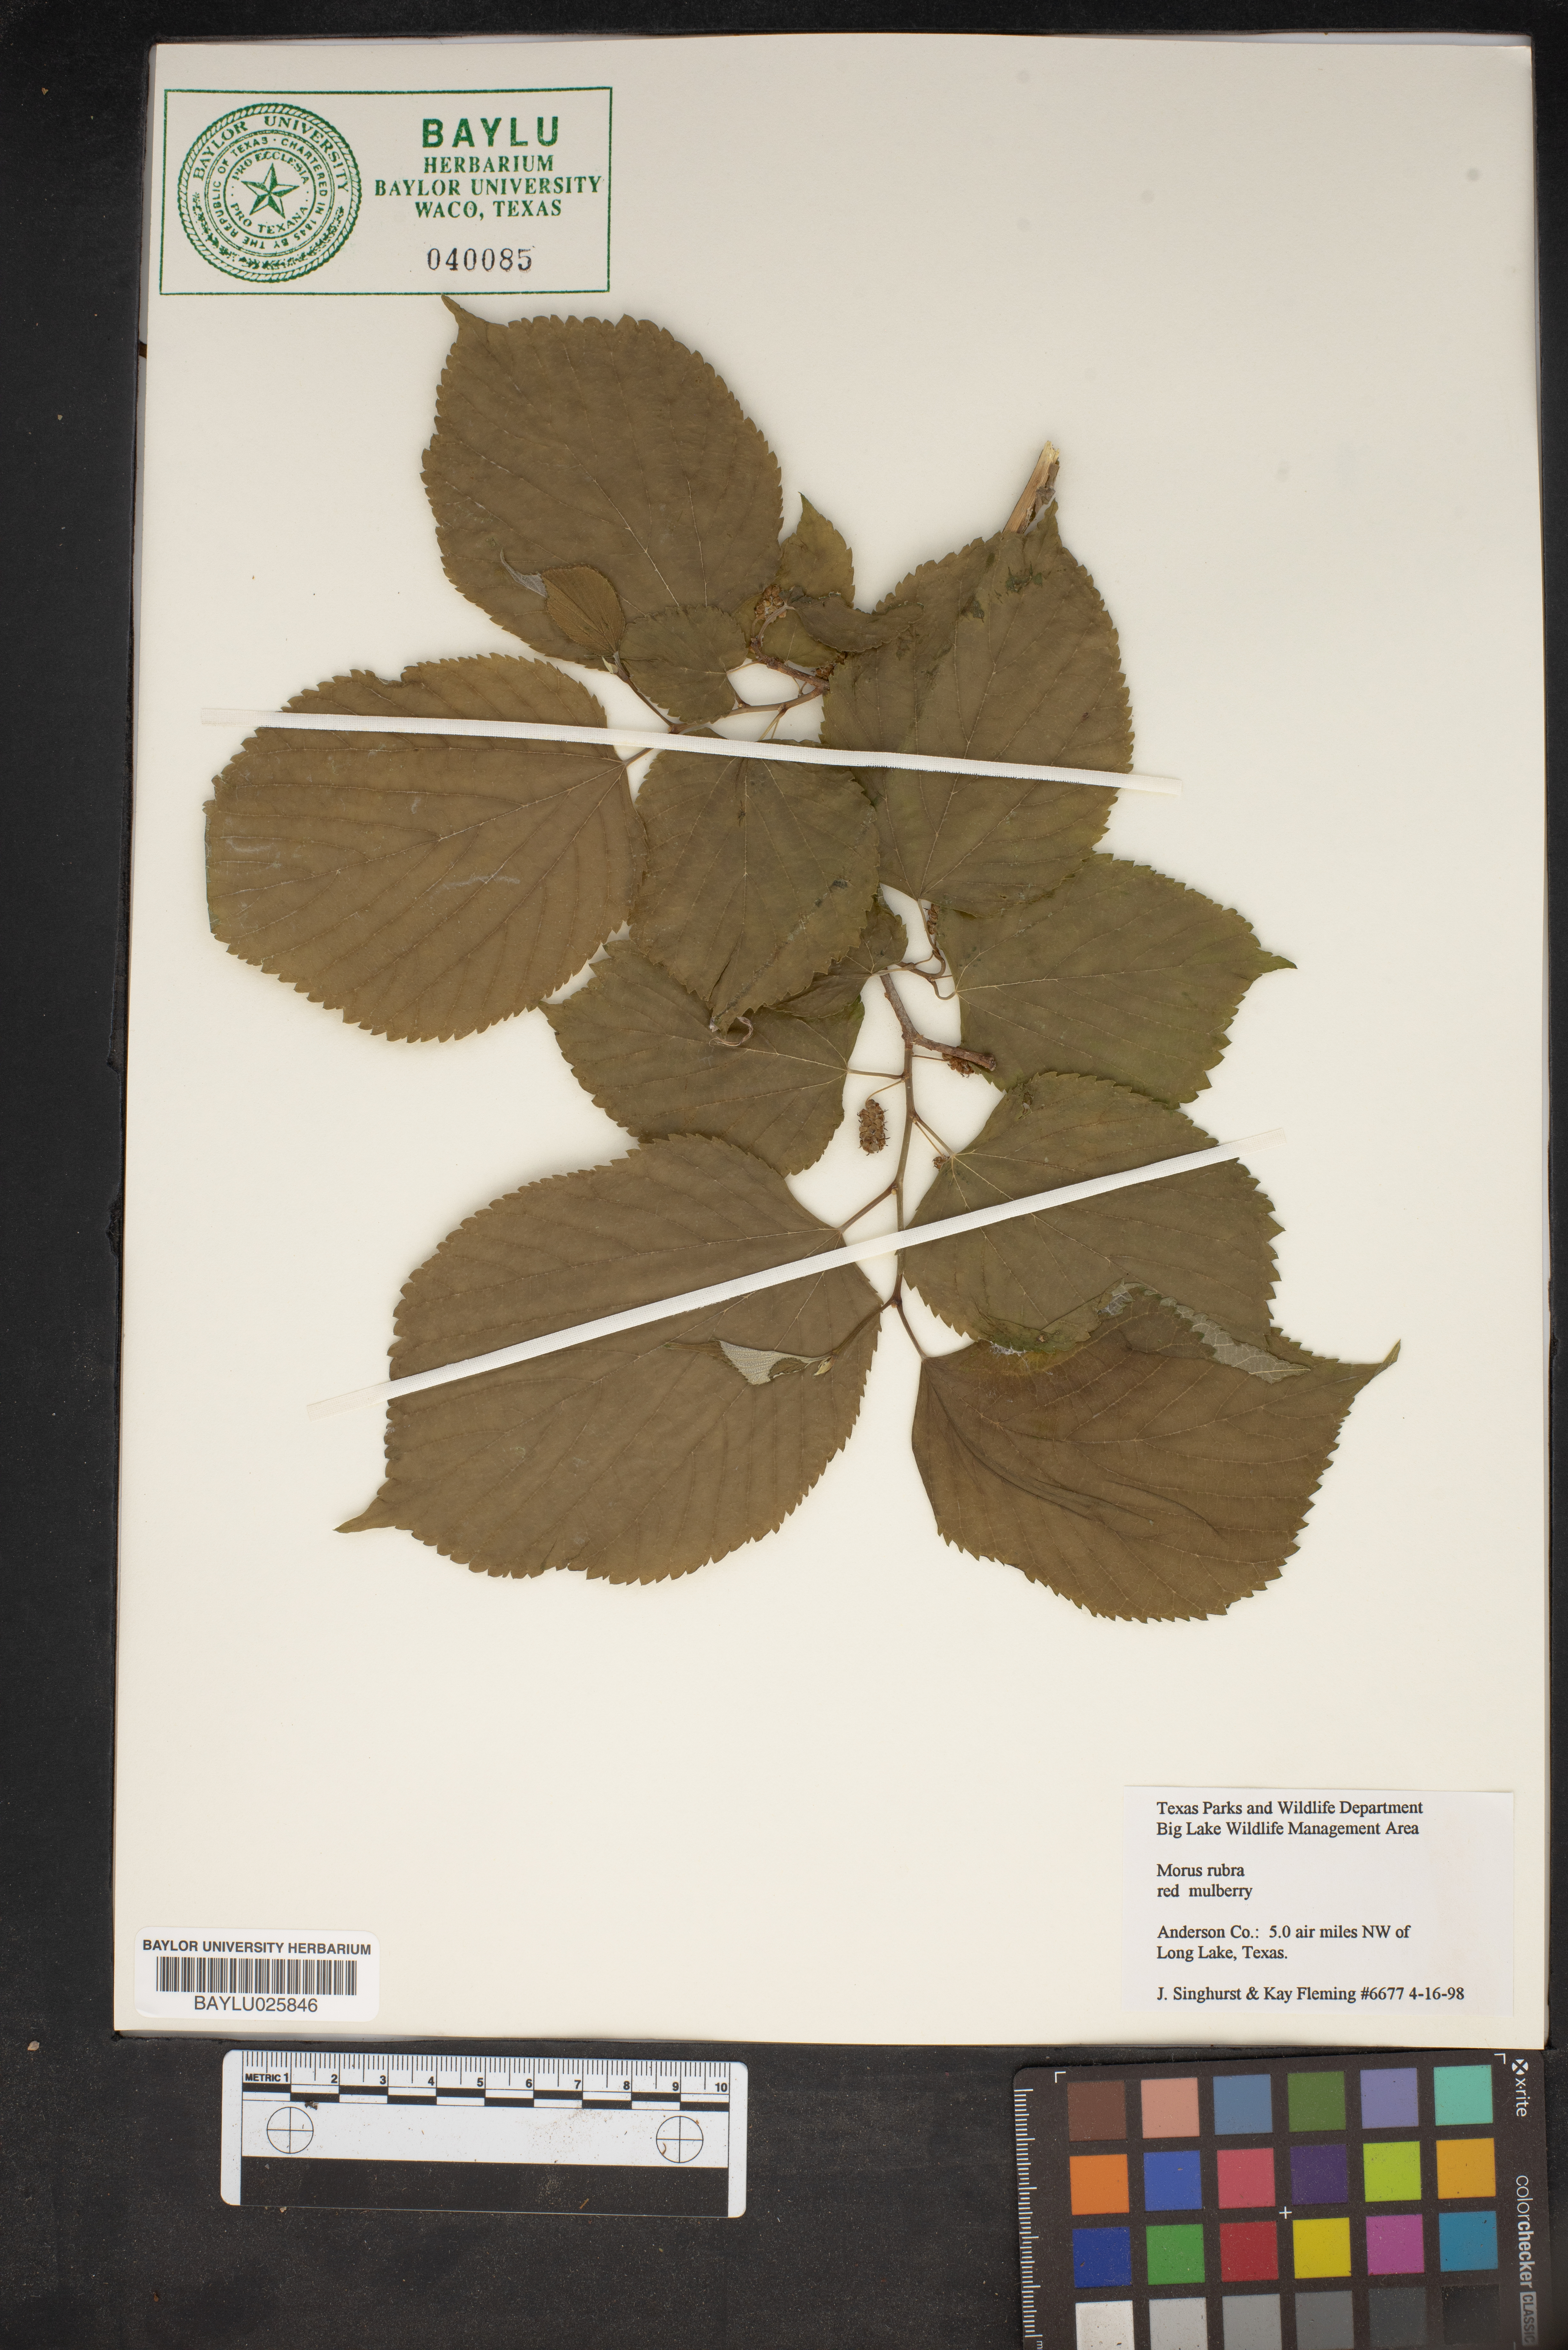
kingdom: Plantae
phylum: Tracheophyta
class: Magnoliopsida
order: Rosales
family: Moraceae
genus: Morus
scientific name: Morus rubra
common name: Red mulberry
